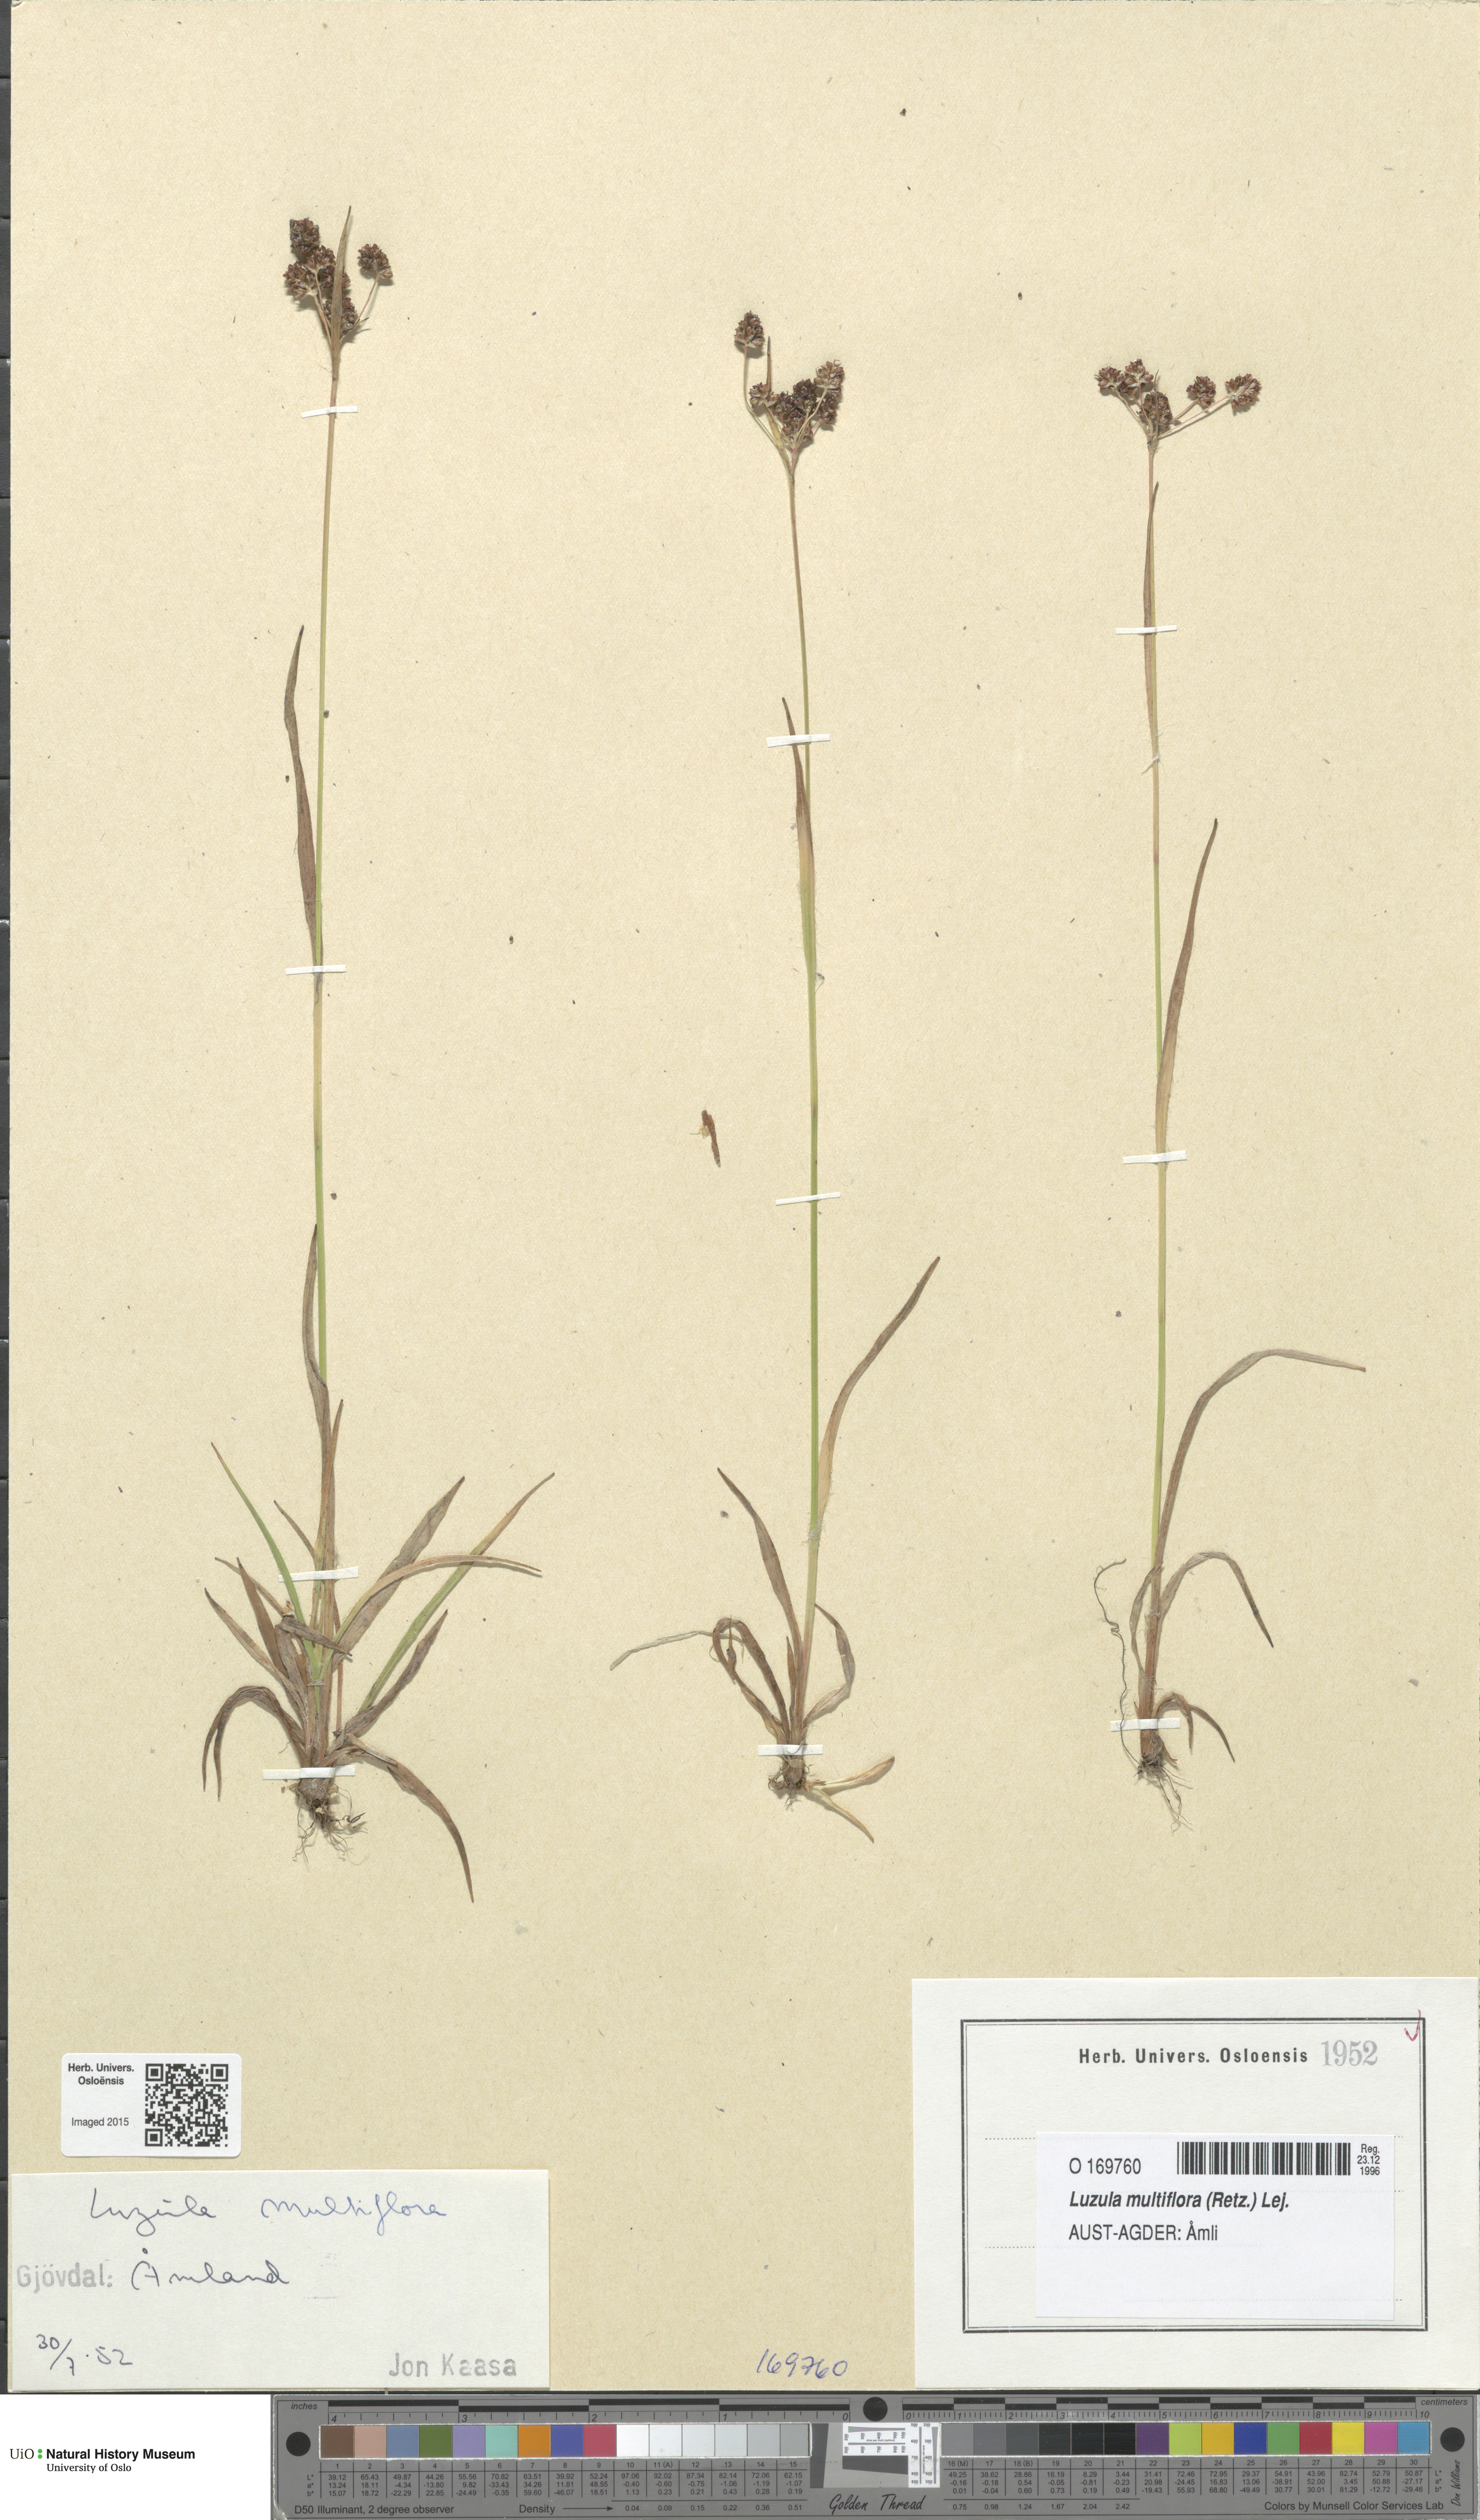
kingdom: Plantae
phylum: Tracheophyta
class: Liliopsida
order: Poales
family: Juncaceae
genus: Luzula
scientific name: Luzula multiflora
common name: Heath wood-rush
